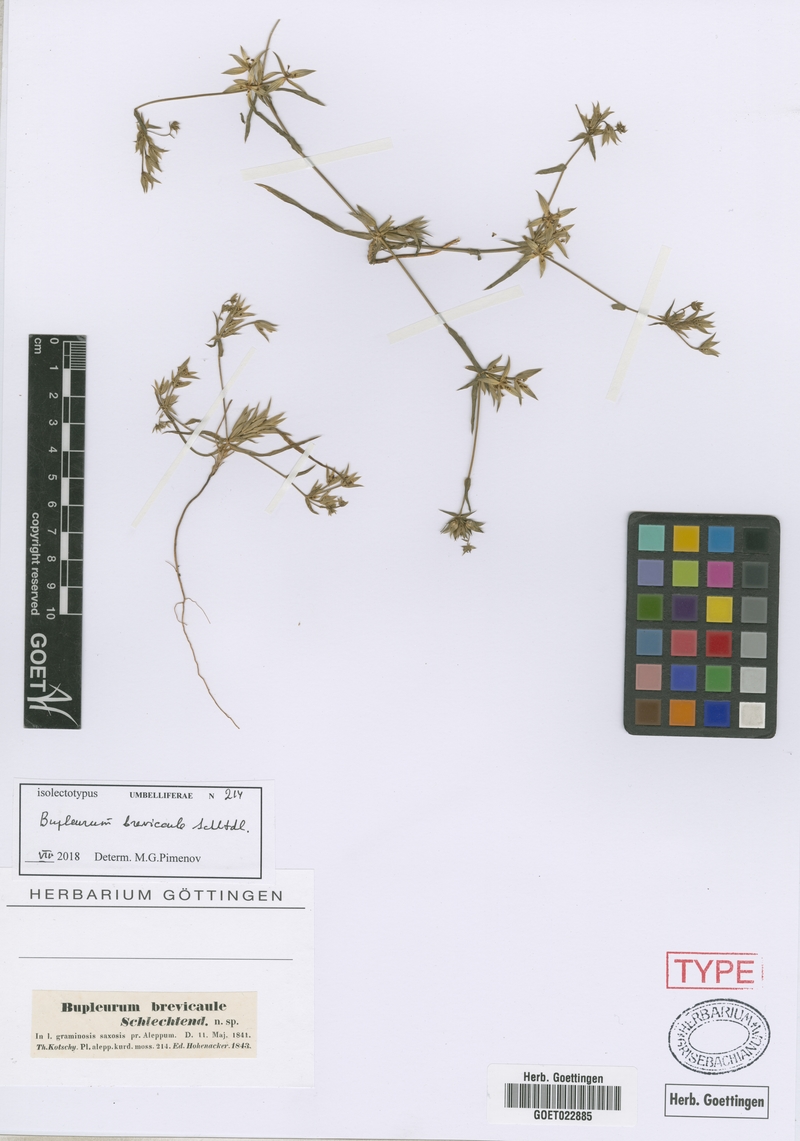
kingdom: Plantae
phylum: Tracheophyta
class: Magnoliopsida
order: Apiales
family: Apiaceae
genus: Bupleurum
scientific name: Bupleurum brevicaule
